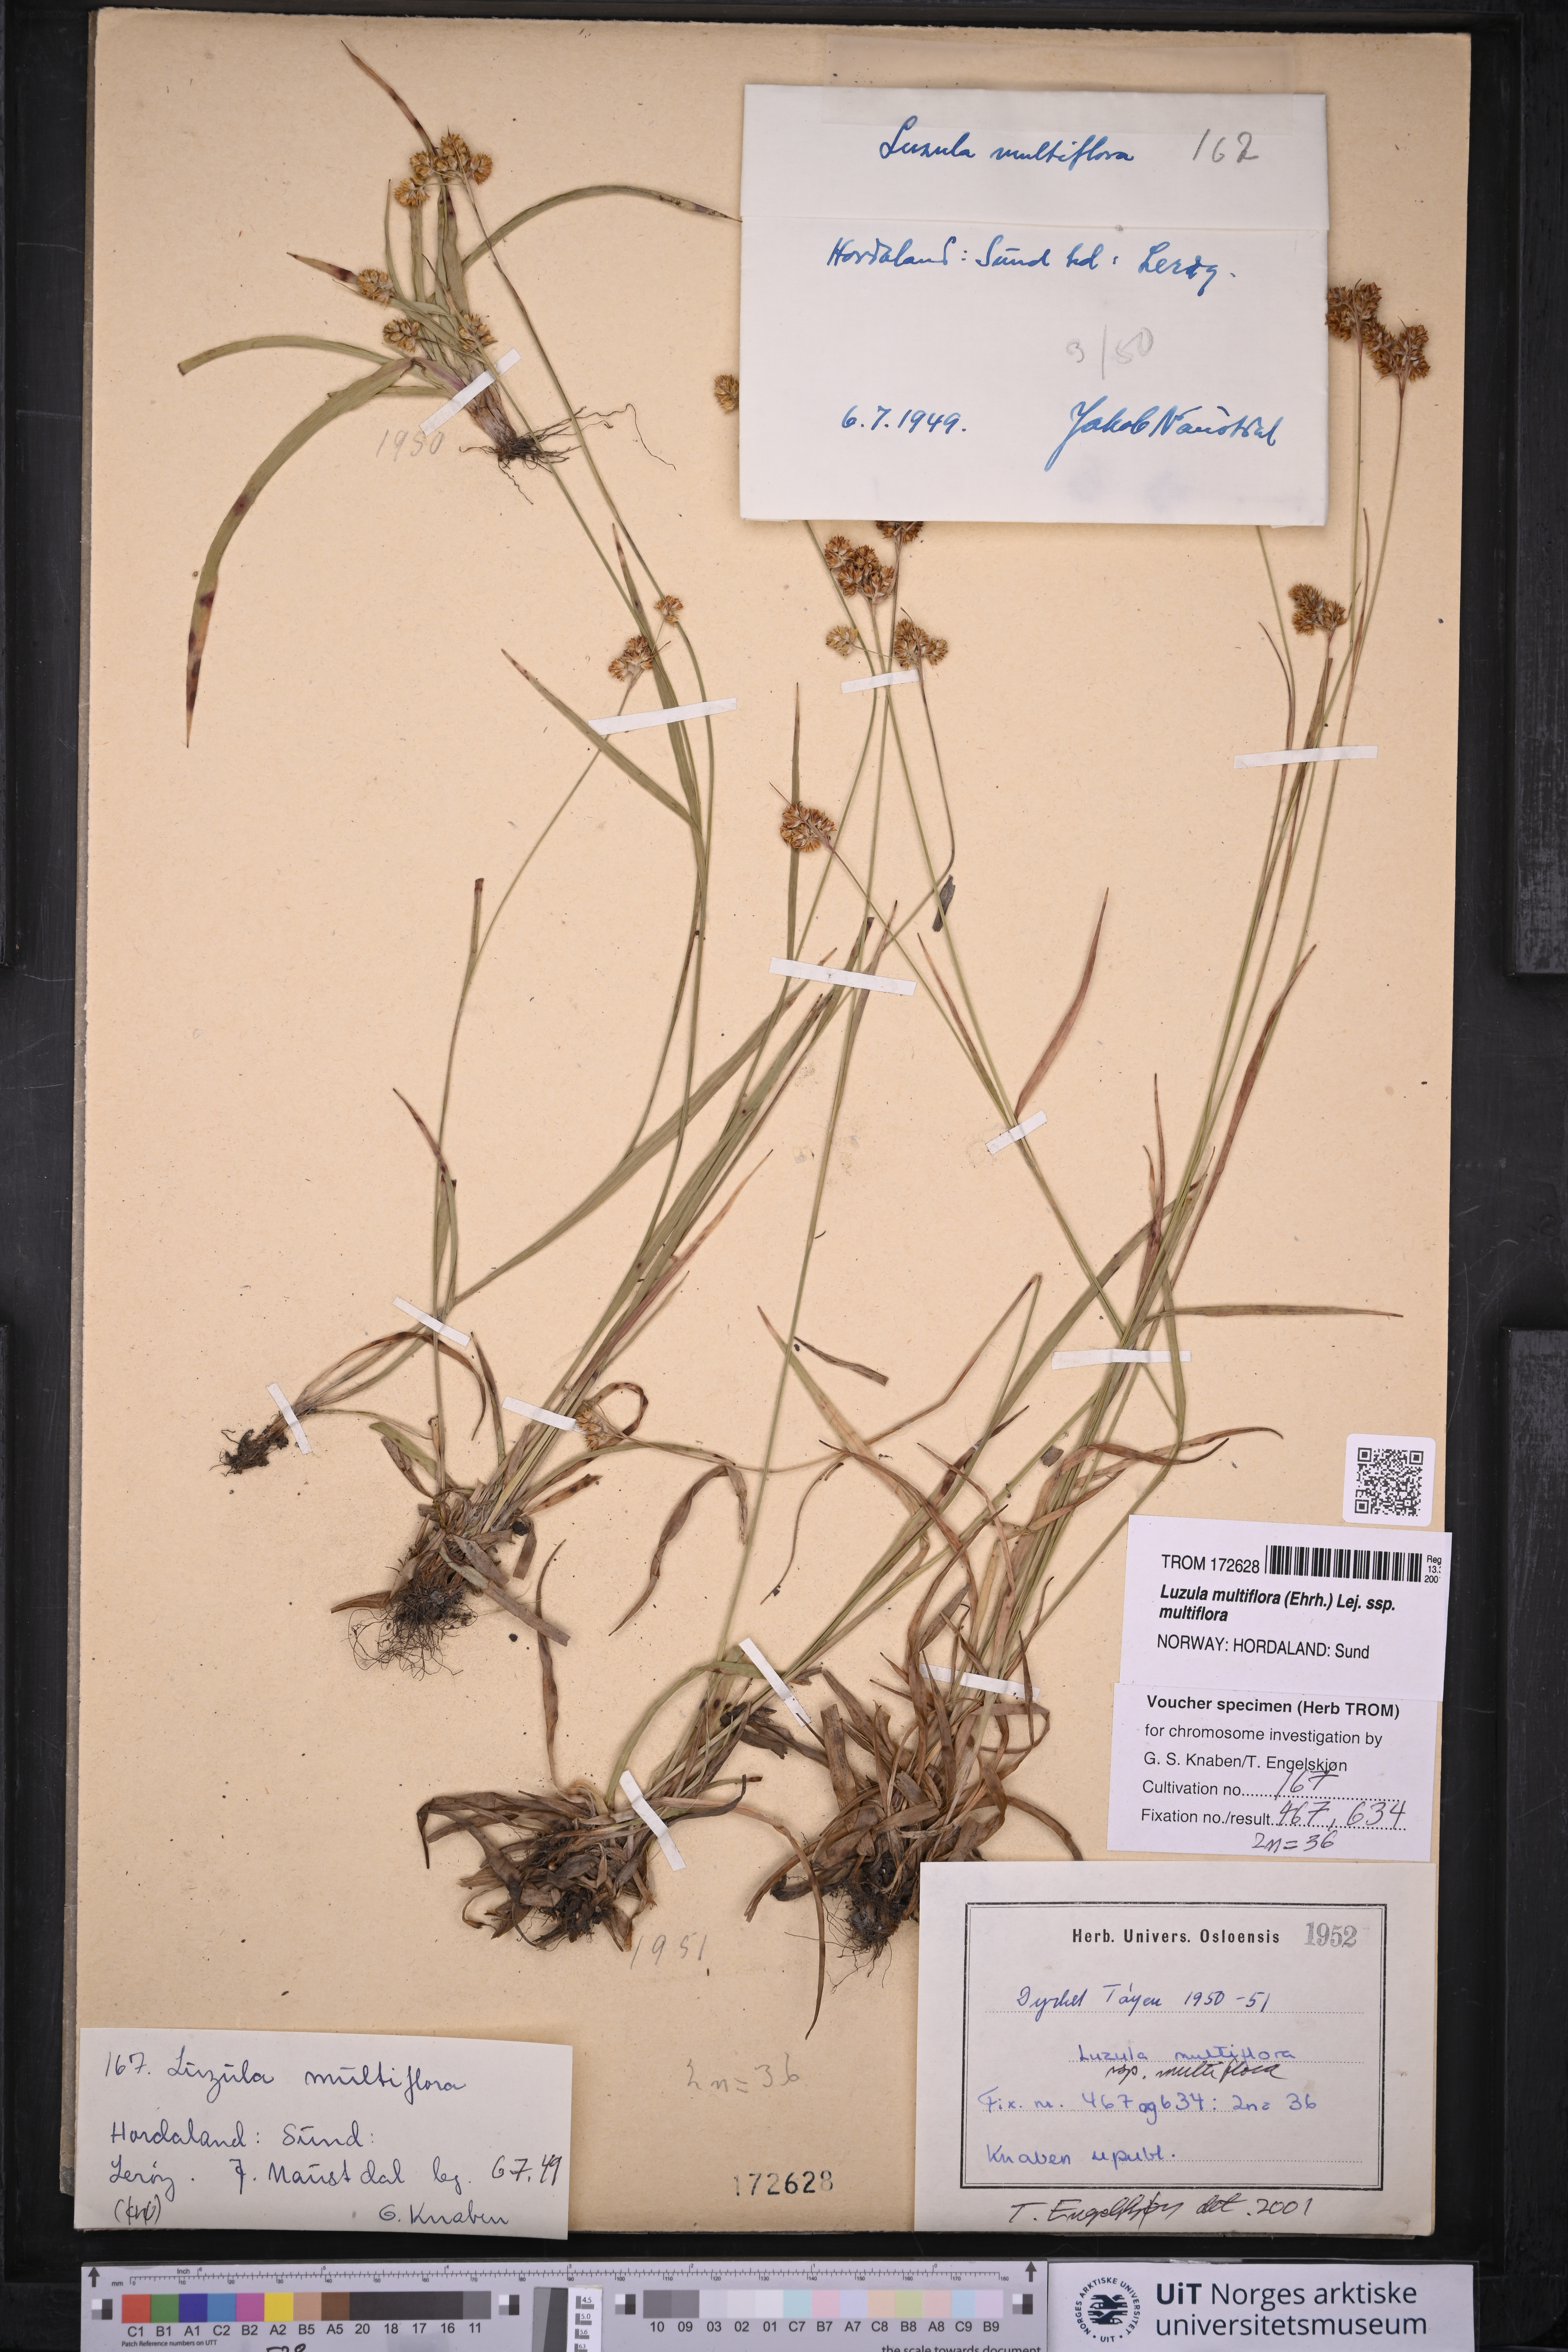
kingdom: Plantae
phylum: Tracheophyta
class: Liliopsida
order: Poales
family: Juncaceae
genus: Luzula
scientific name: Luzula multiflora
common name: Heath wood-rush
